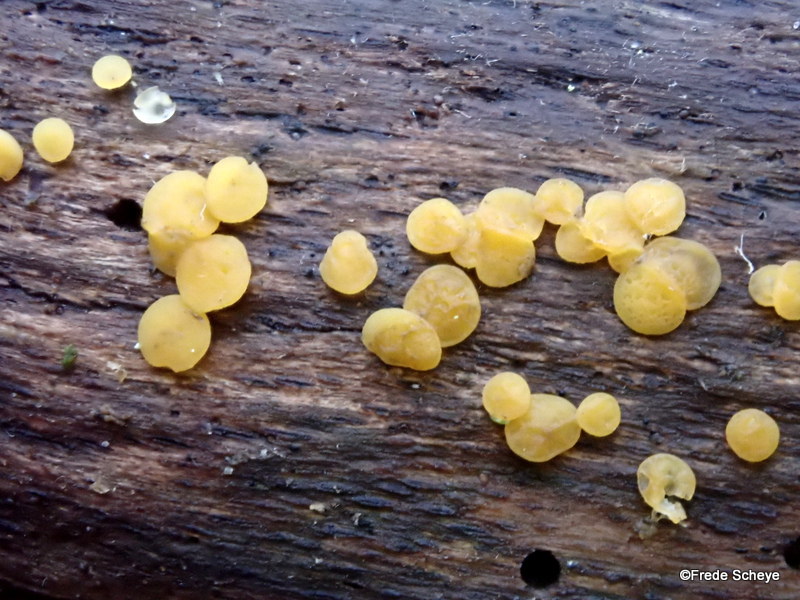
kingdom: Fungi
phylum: Ascomycota
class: Leotiomycetes
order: Helotiales
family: Pezizellaceae
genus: Calycina
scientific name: Calycina citrina
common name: almindelig gulskive
